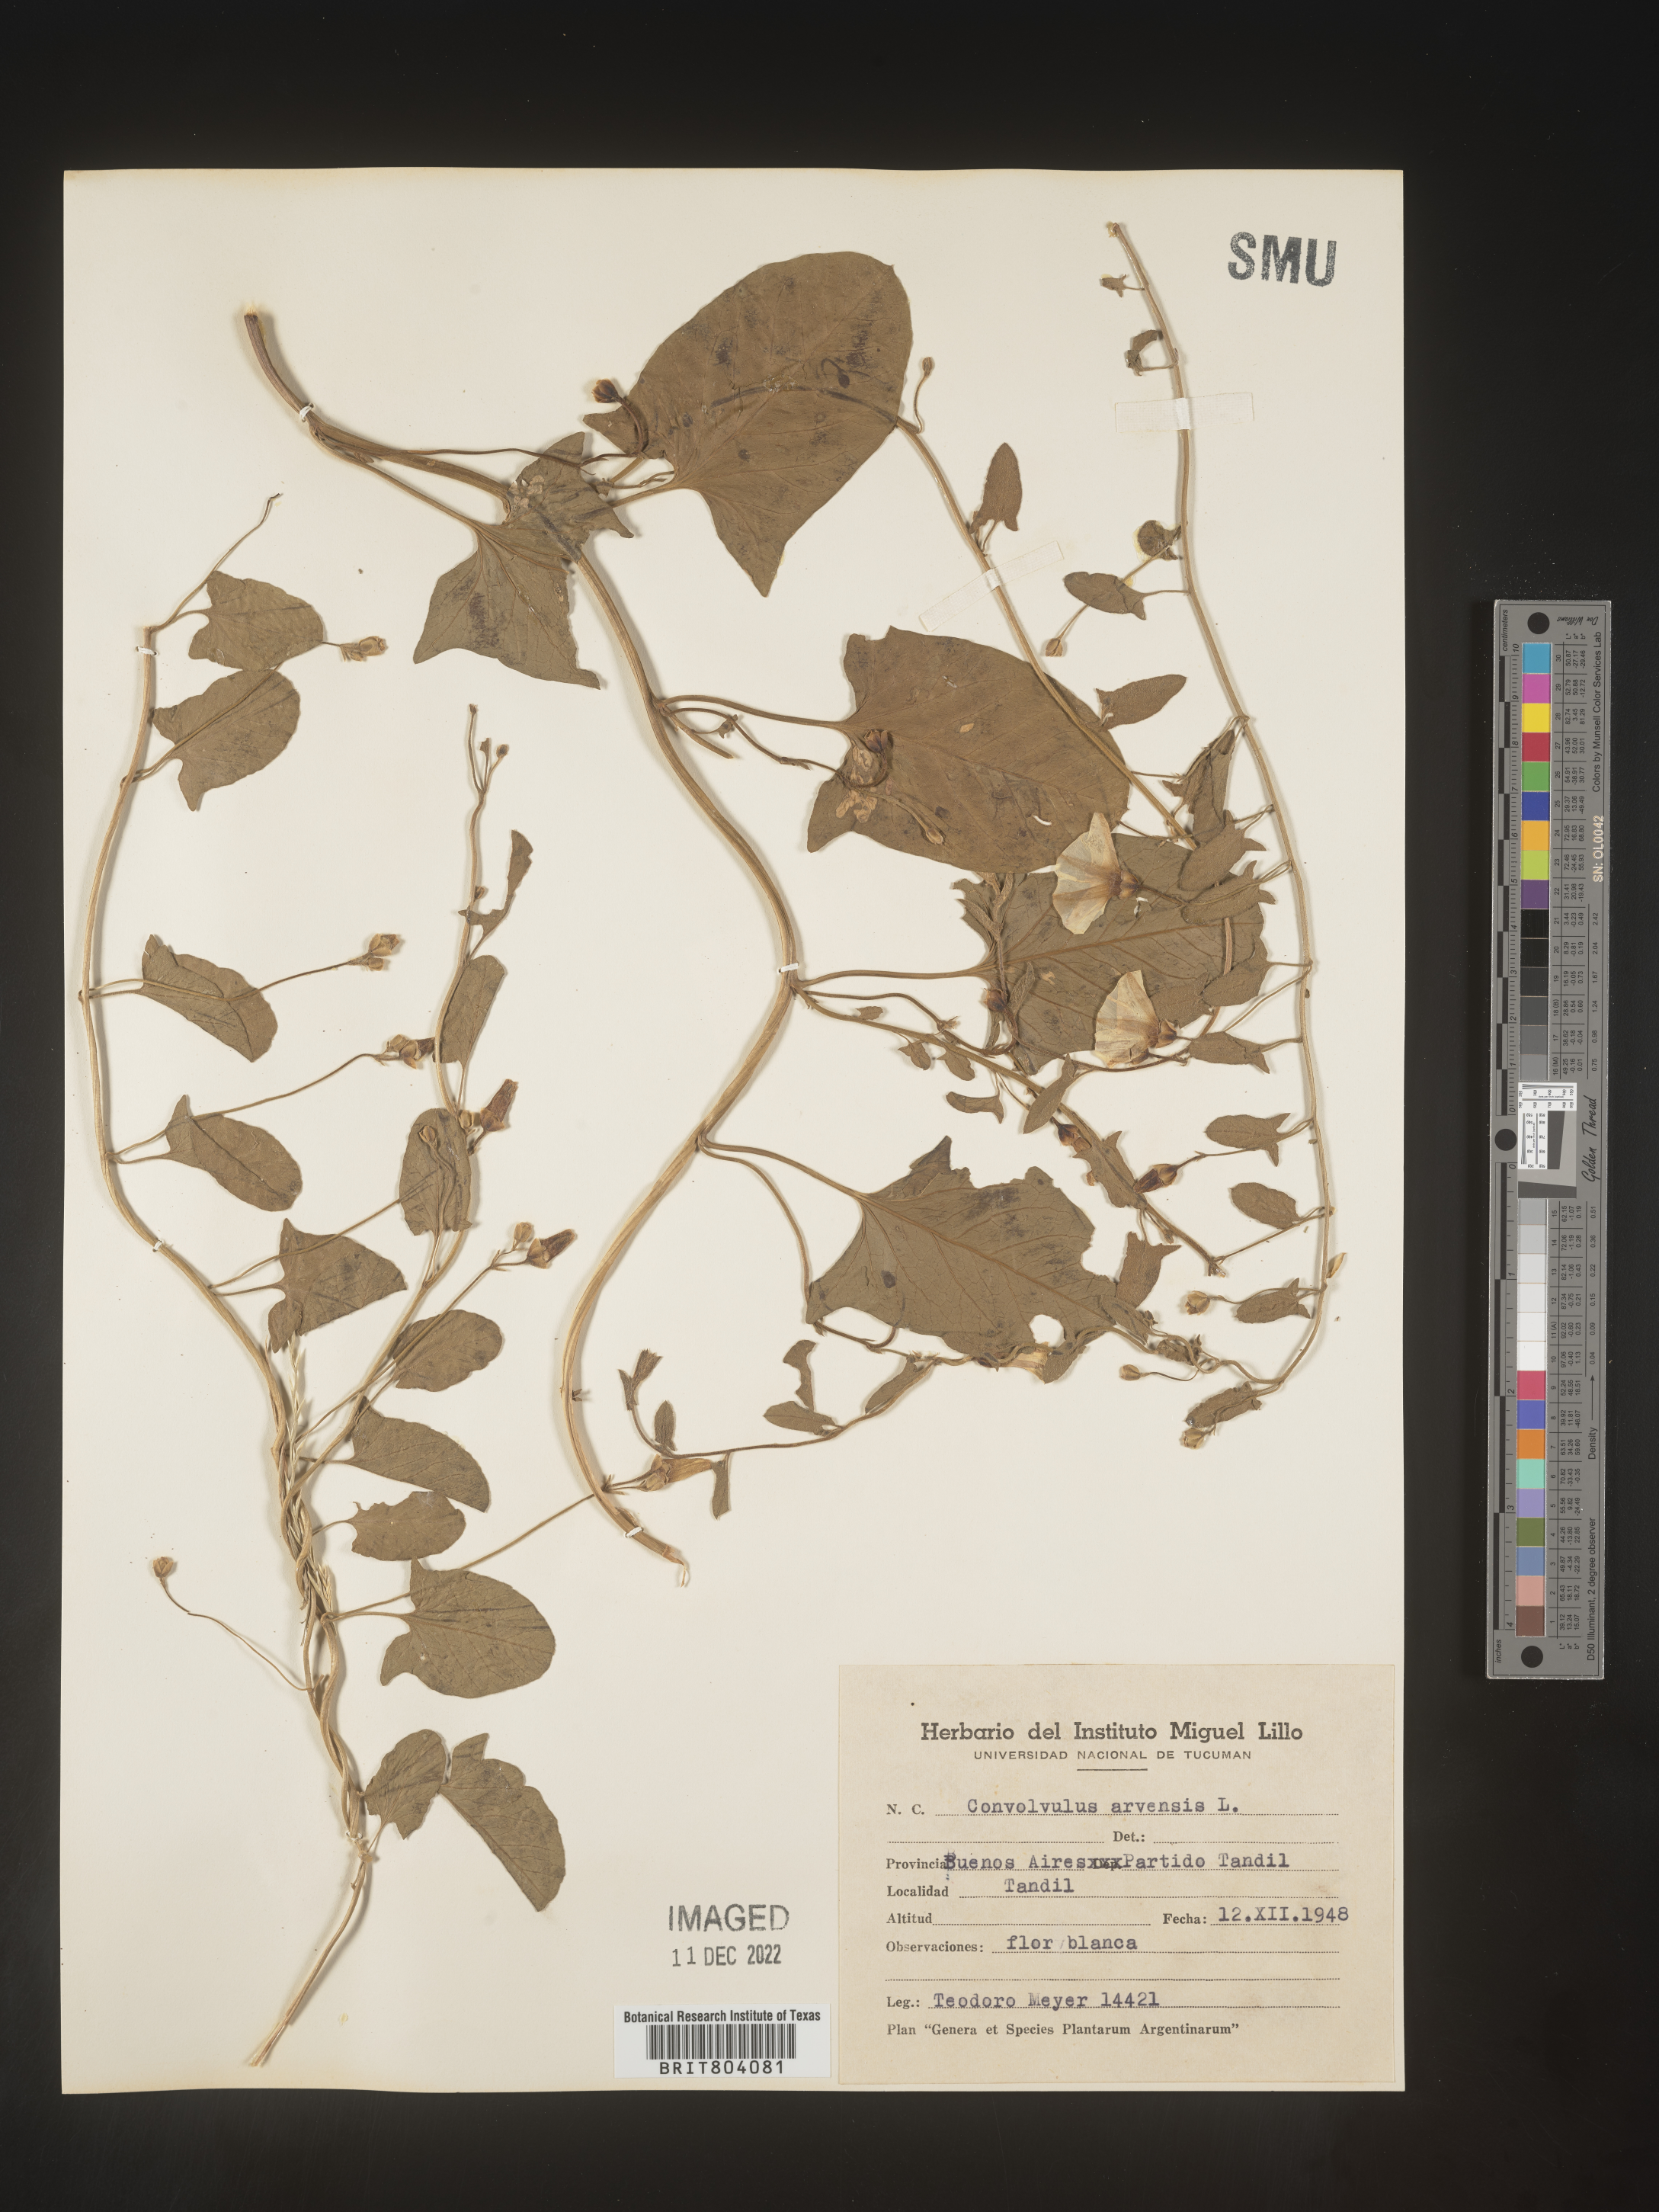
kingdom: Plantae
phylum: Tracheophyta
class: Magnoliopsida
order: Solanales
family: Convolvulaceae
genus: Convolvulus
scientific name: Convolvulus
